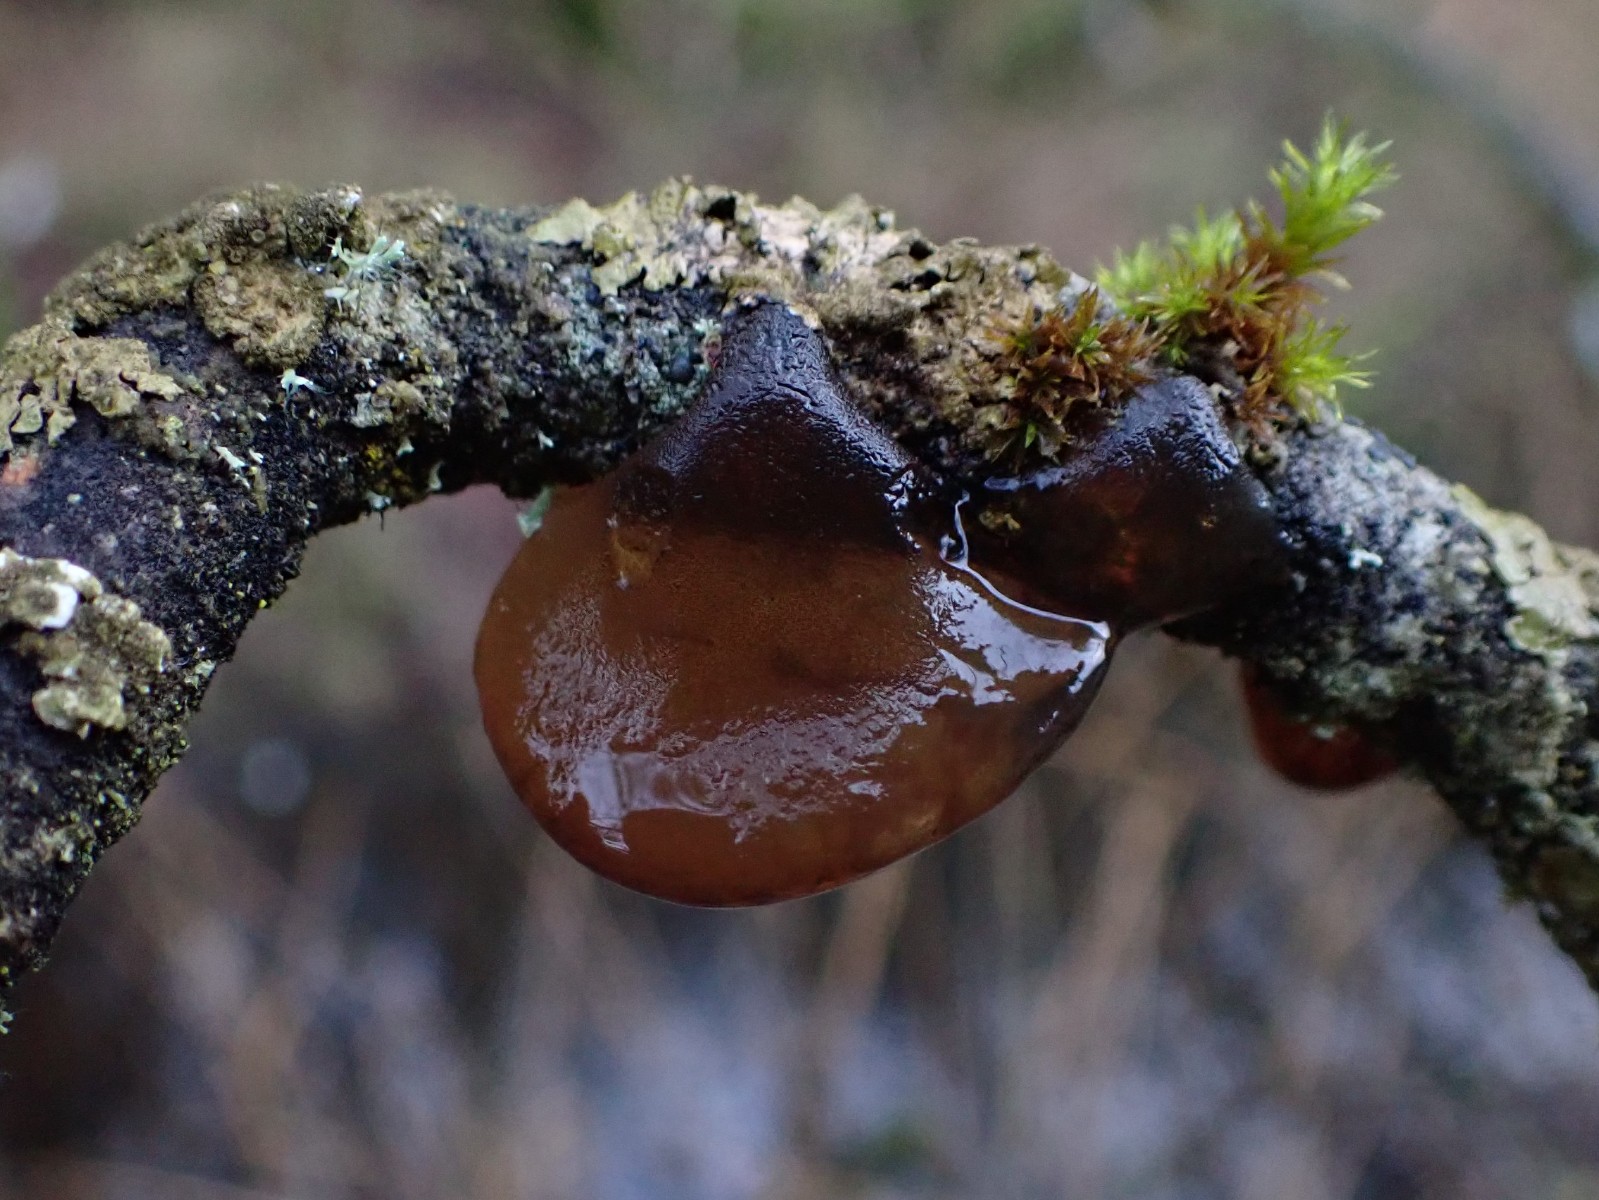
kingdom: Fungi
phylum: Basidiomycota
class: Agaricomycetes
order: Auriculariales
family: Auriculariaceae
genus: Exidia
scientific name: Exidia recisa
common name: pile-bævretop
